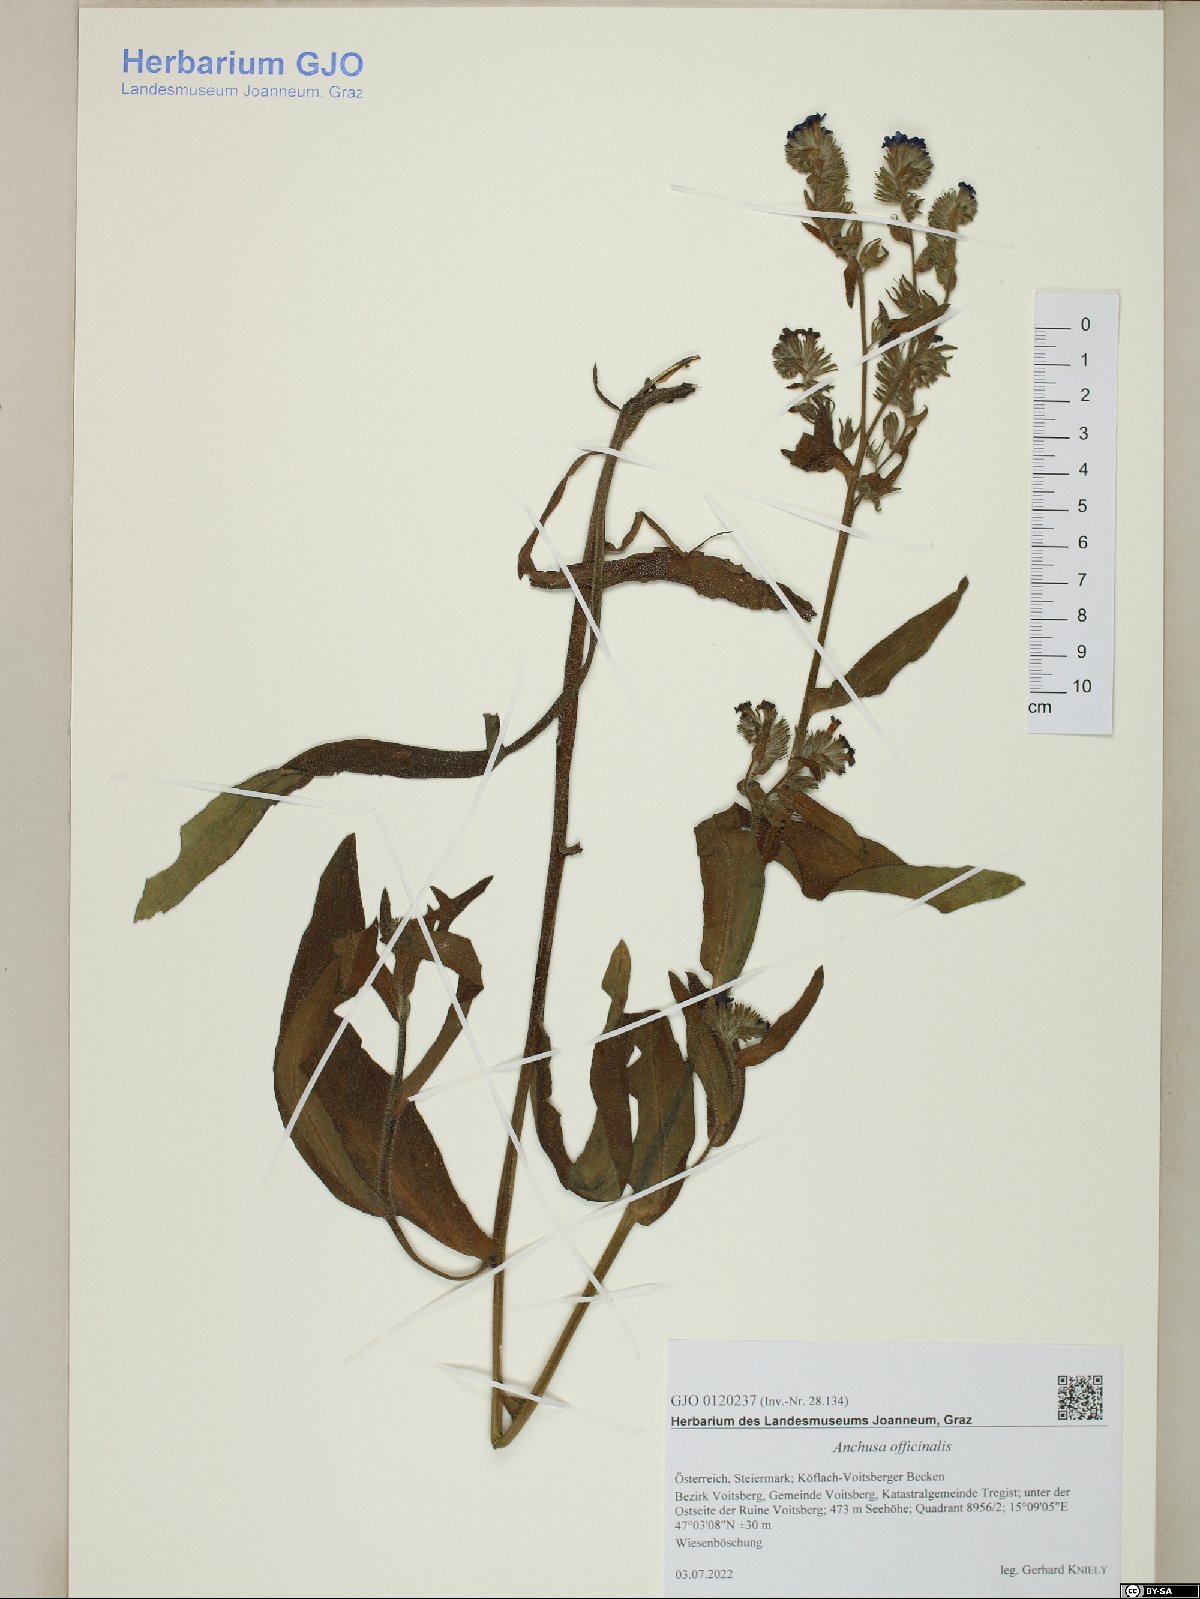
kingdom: Plantae
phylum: Tracheophyta
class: Magnoliopsida
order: Boraginales
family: Boraginaceae
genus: Anchusa
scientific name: Anchusa officinalis
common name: Alkanet
